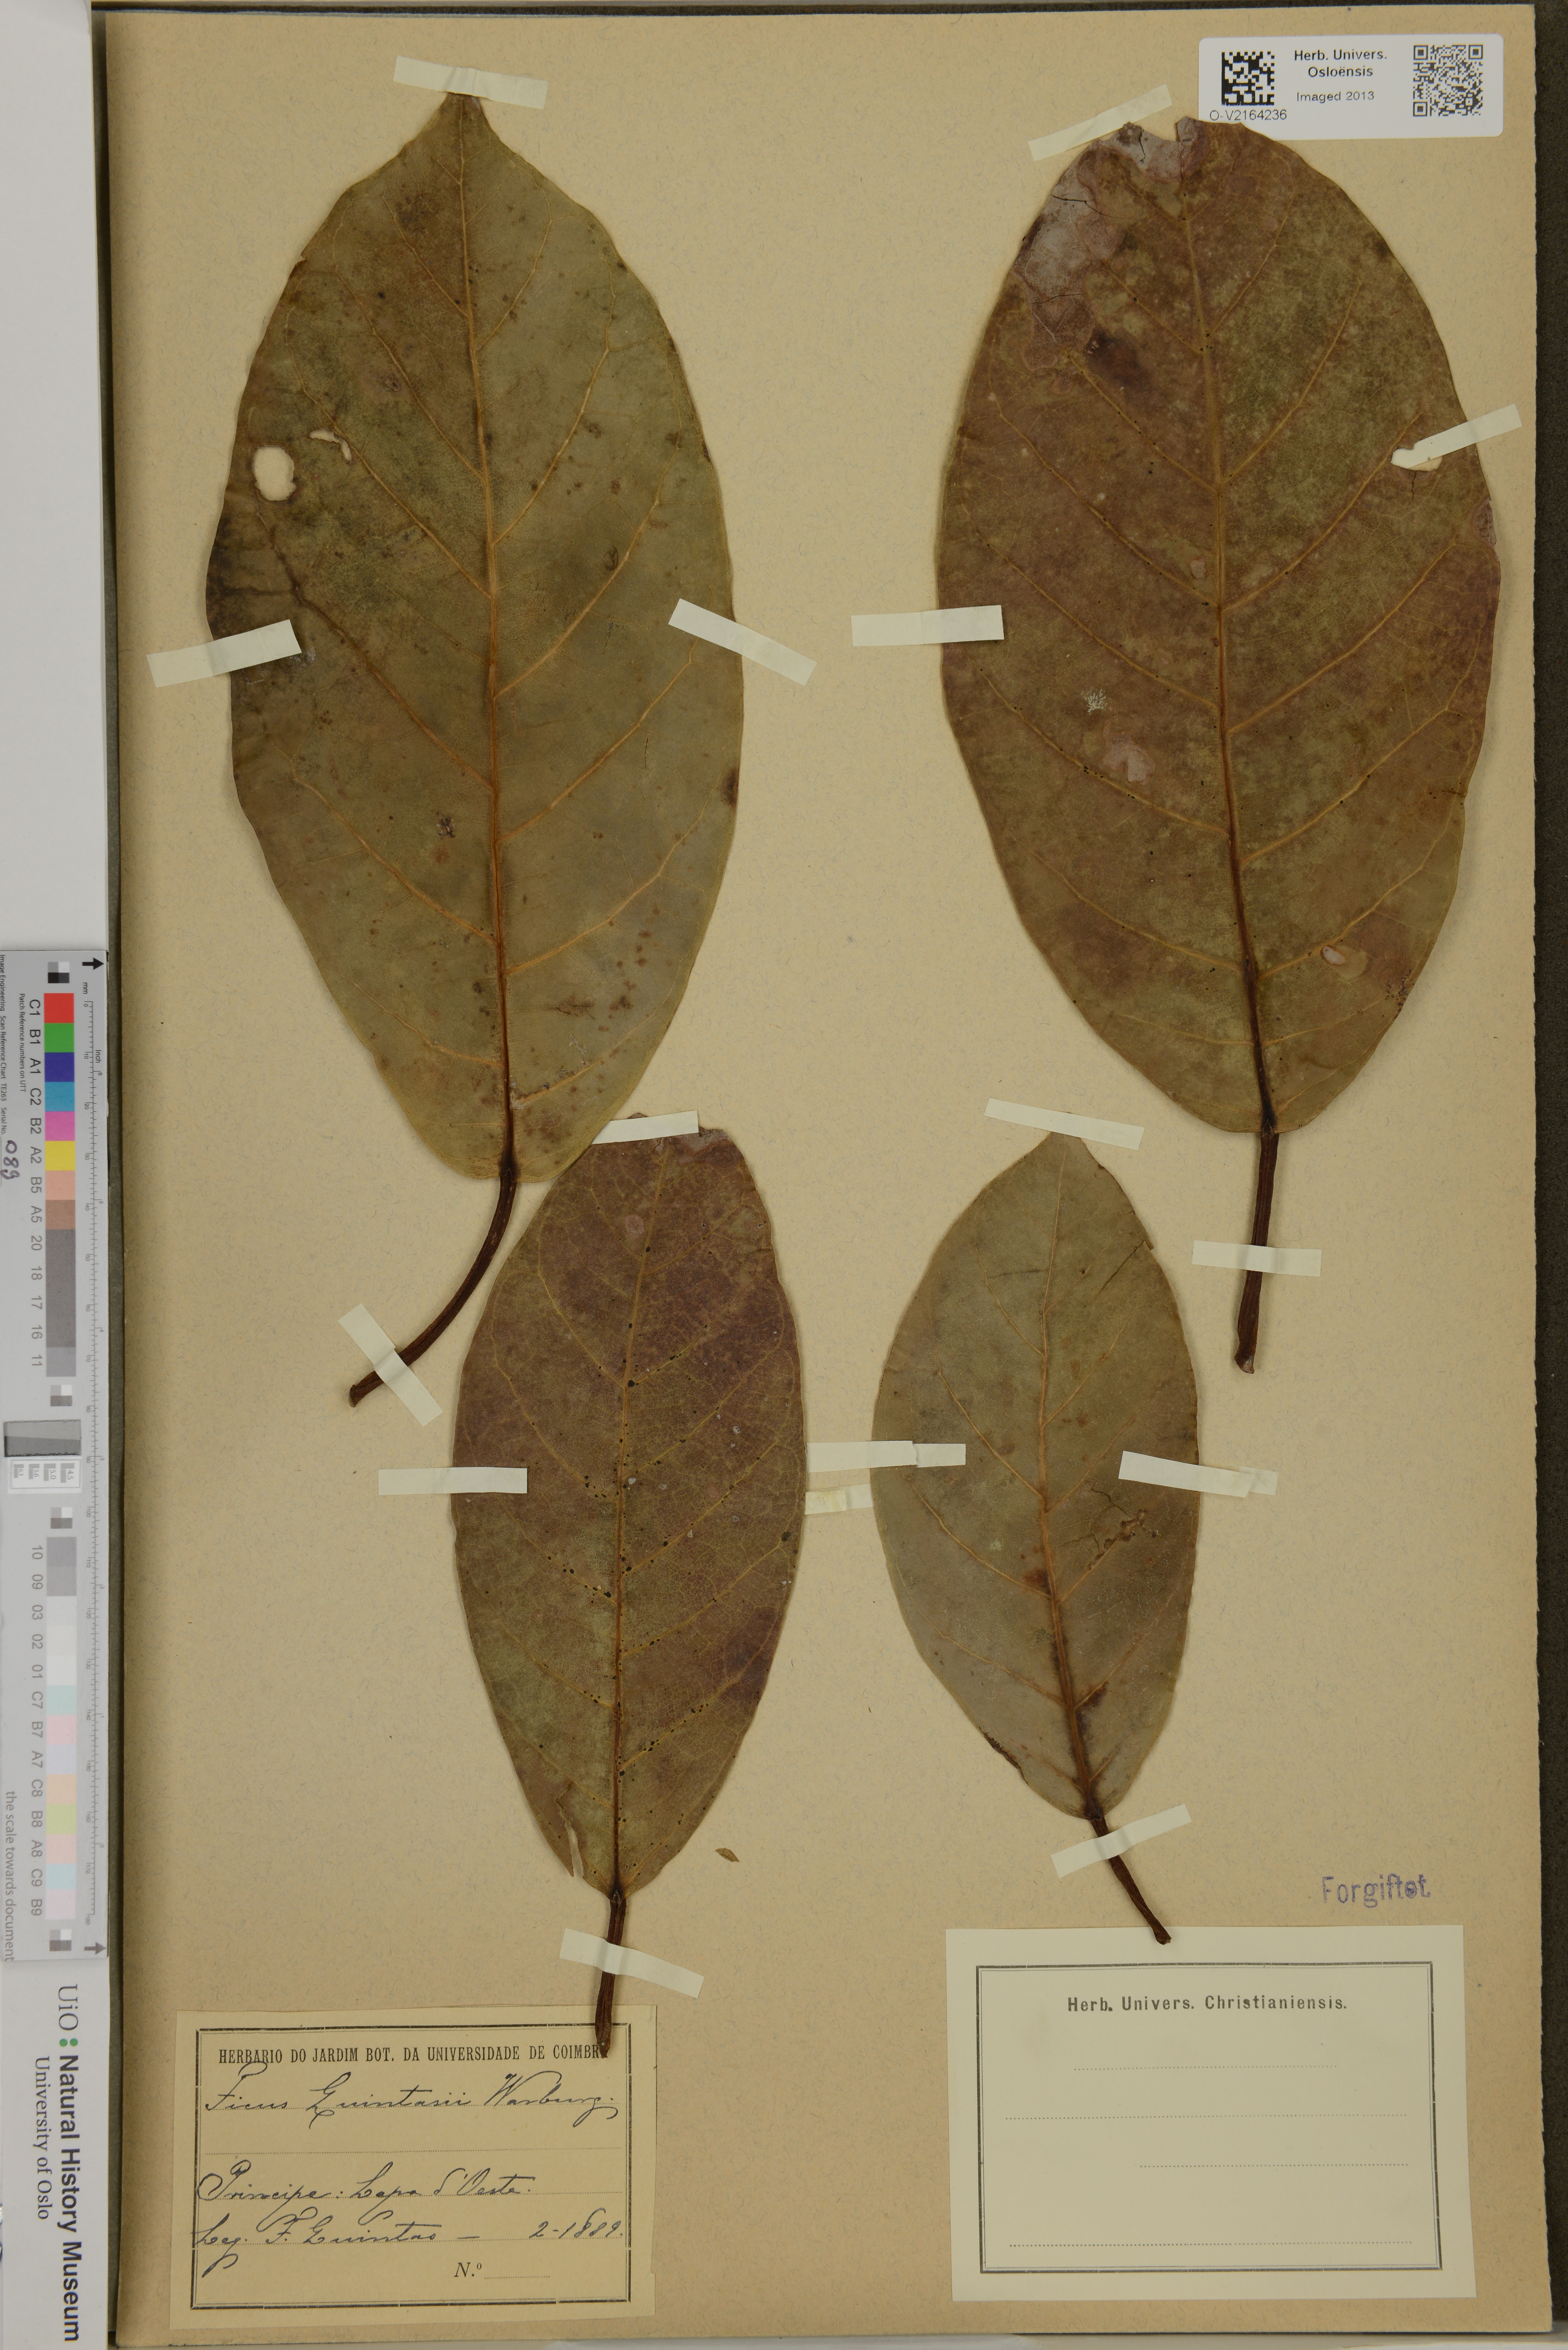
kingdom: Plantae
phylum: Tracheophyta
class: Magnoliopsida
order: Rosales
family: Moraceae
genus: Ficus
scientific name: Ficus
